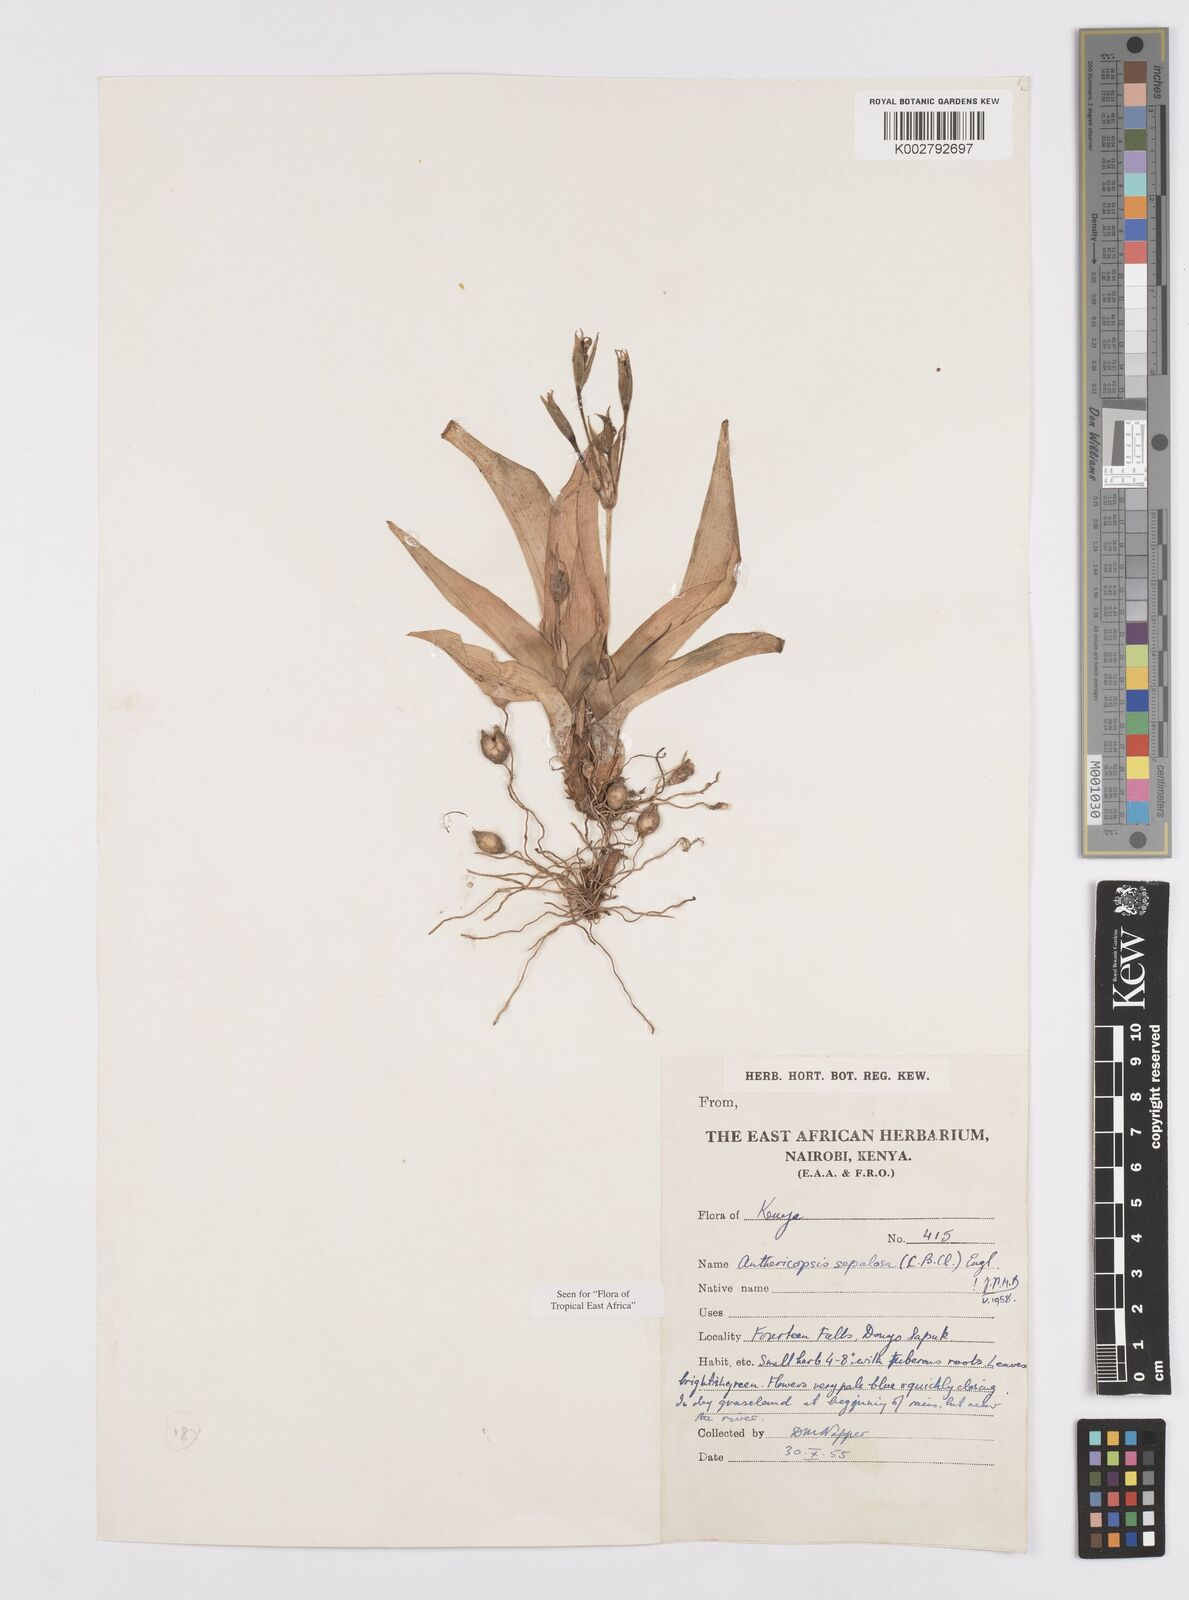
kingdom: Plantae
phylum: Tracheophyta
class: Liliopsida
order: Commelinales
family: Commelinaceae
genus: Anthericopsis
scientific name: Anthericopsis sepalosa
